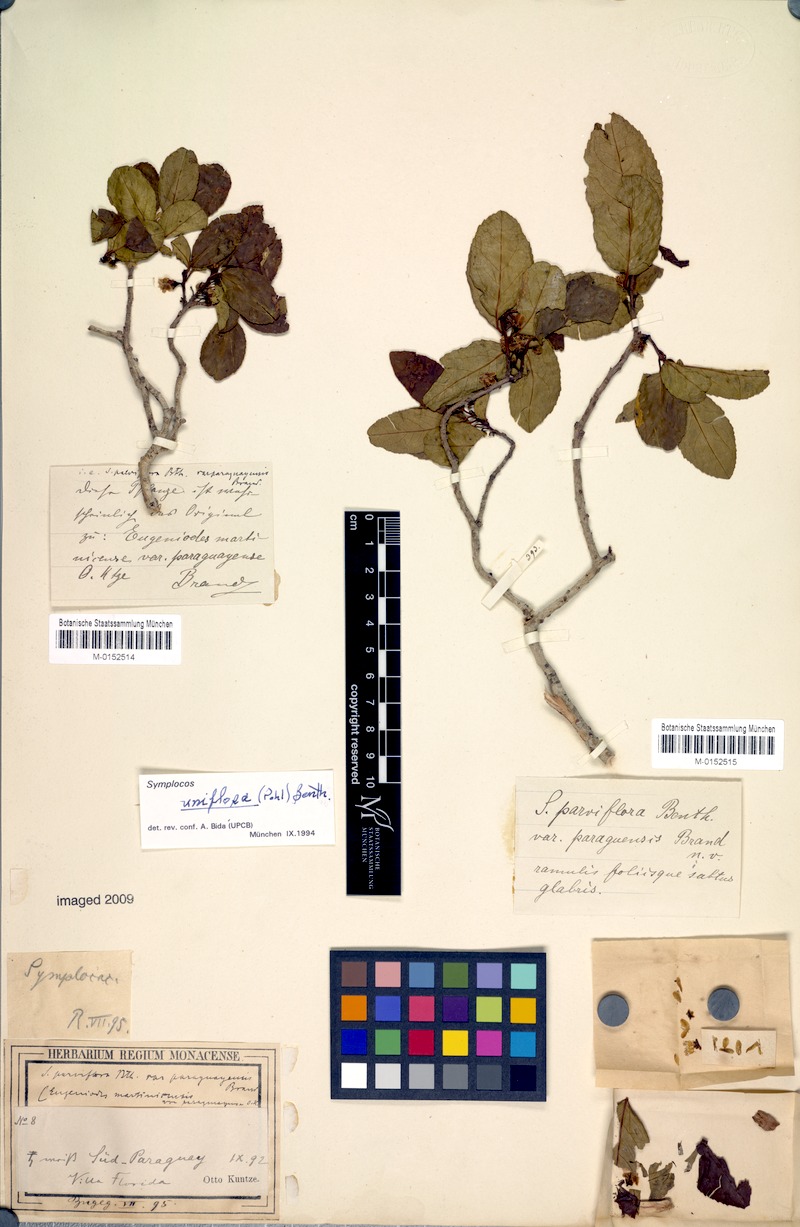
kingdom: Plantae
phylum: Tracheophyta
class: Magnoliopsida
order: Ericales
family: Symplocaceae
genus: Symplocos
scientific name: Symplocos uniflora
